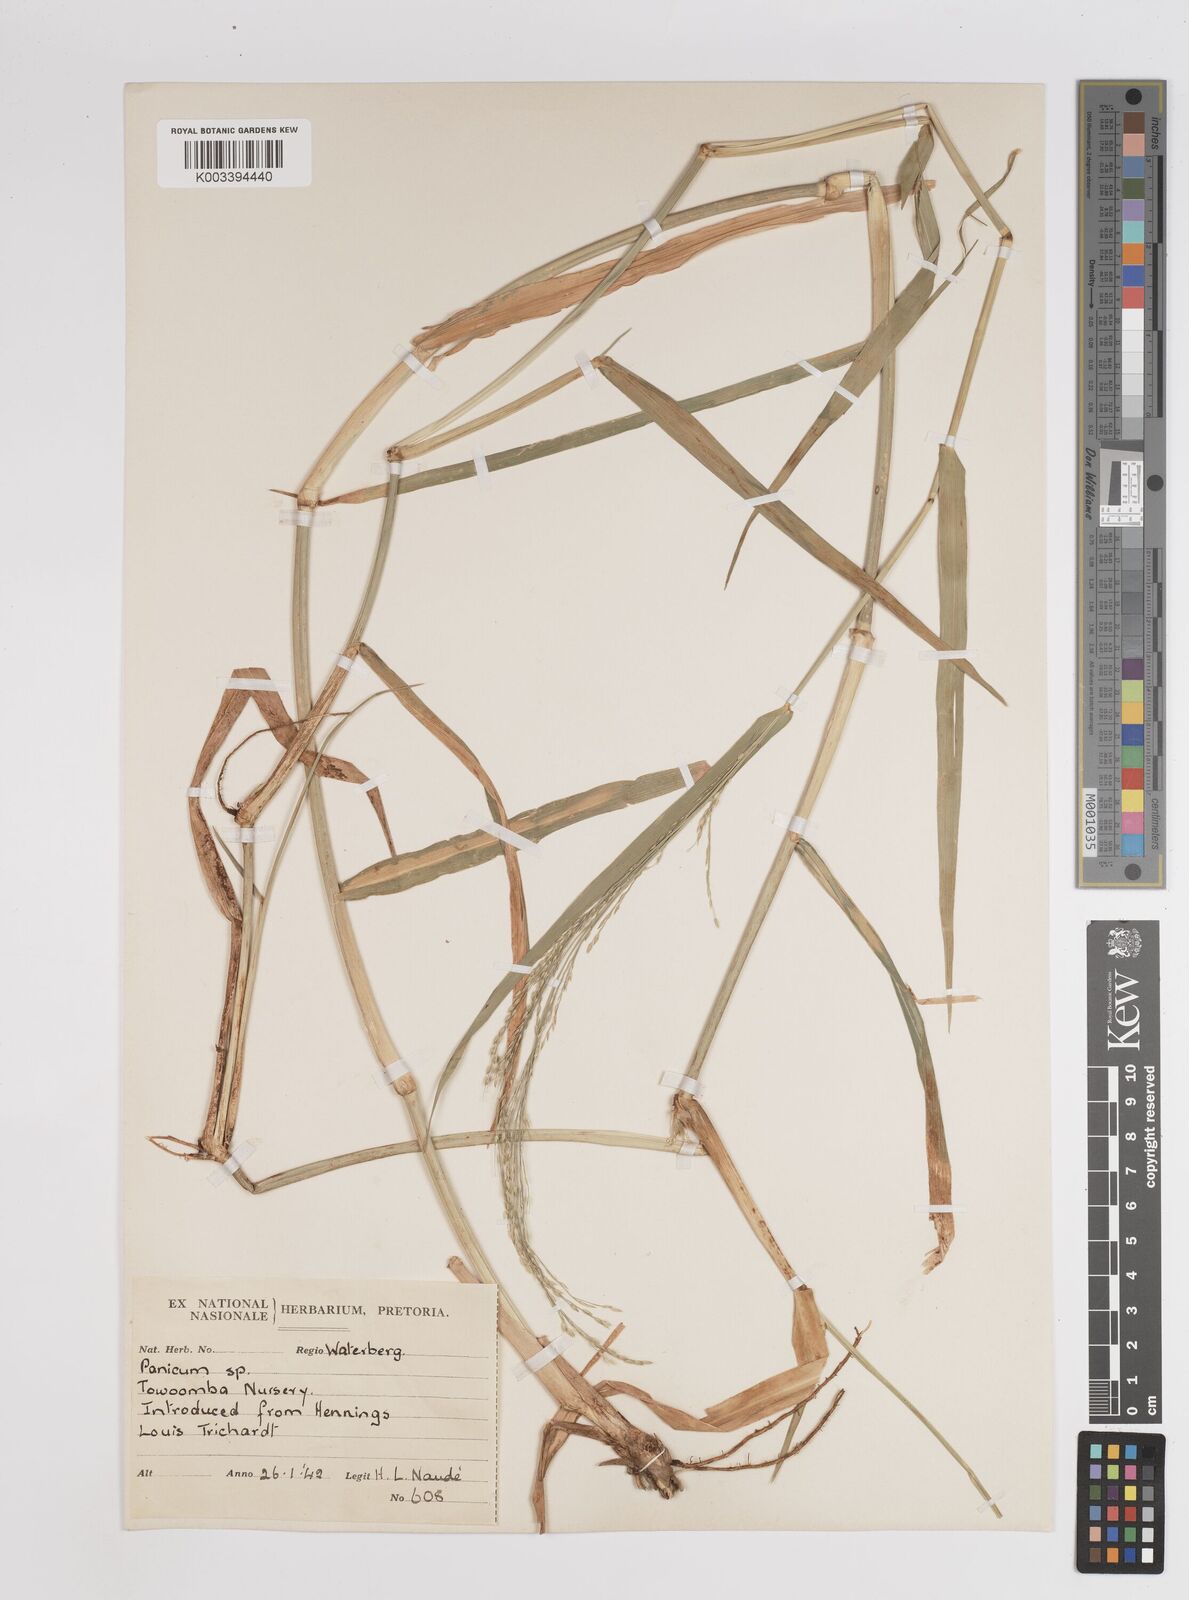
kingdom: Plantae
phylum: Tracheophyta
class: Liliopsida
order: Poales
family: Poaceae
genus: Panicum
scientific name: Panicum
